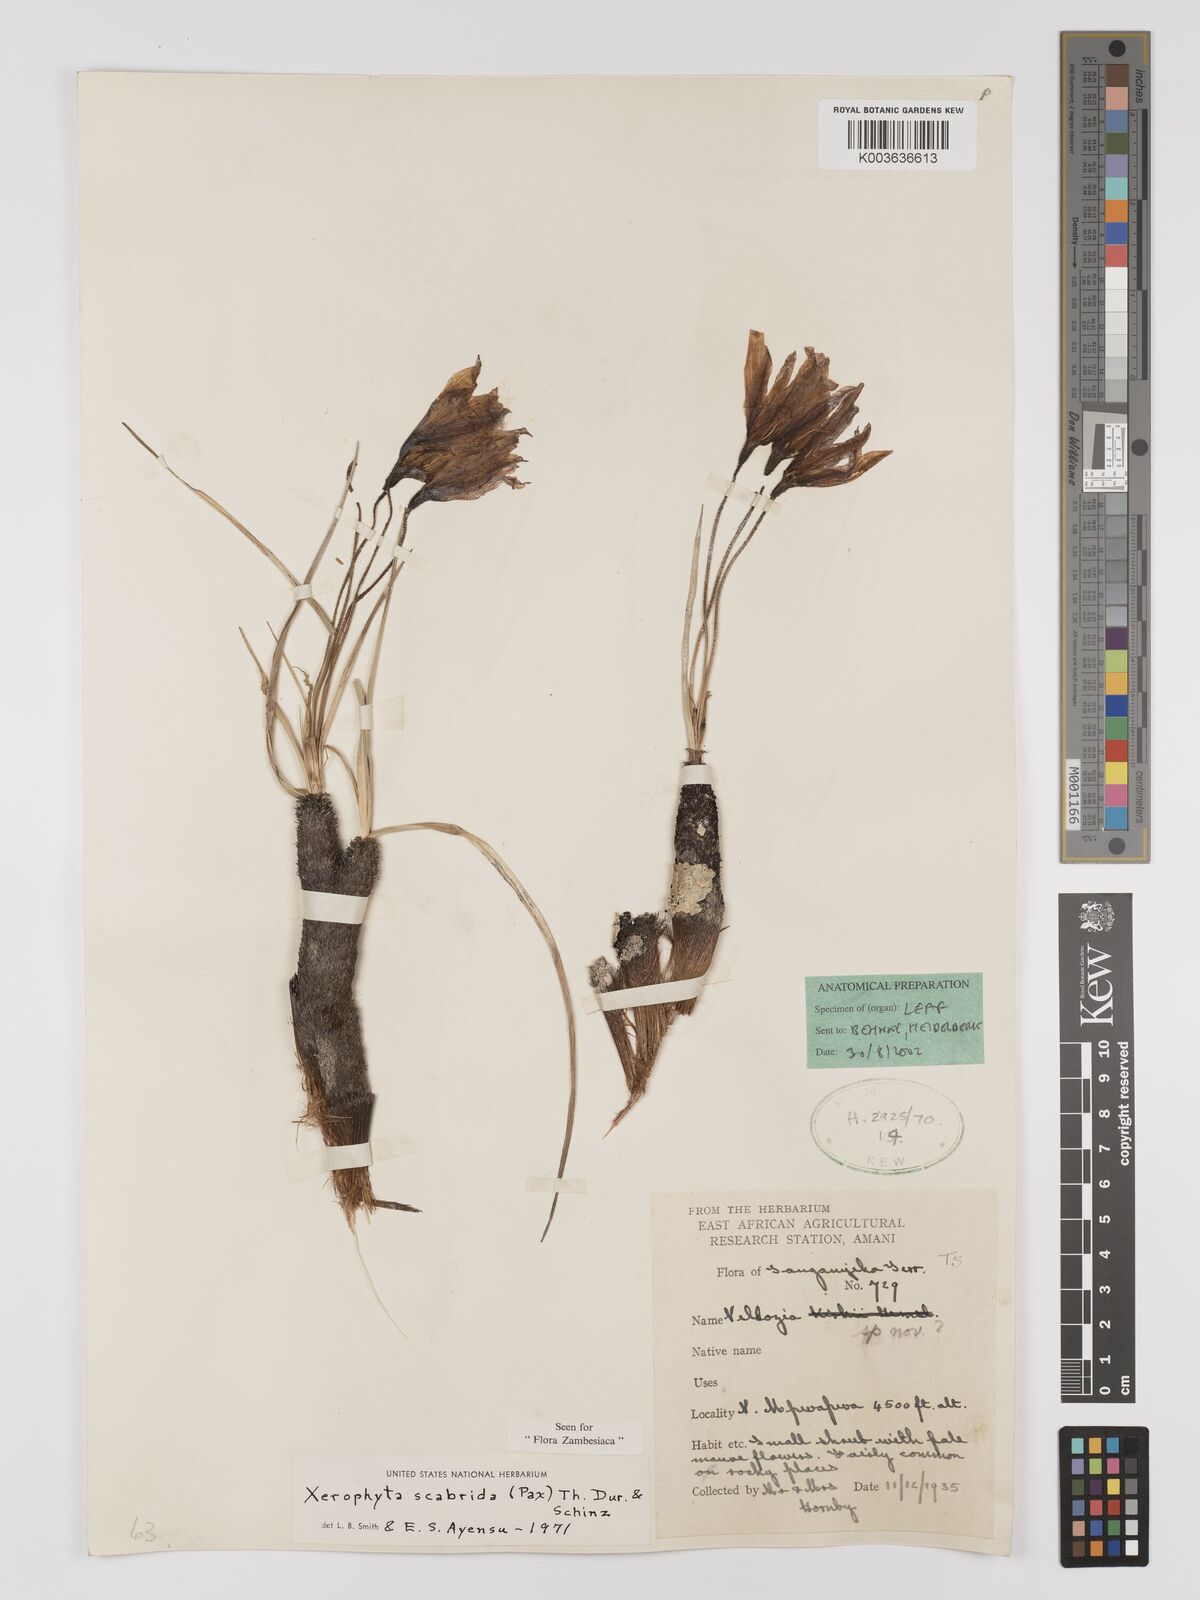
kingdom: Plantae
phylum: Tracheophyta
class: Liliopsida
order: Pandanales
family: Velloziaceae
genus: Xerophyta
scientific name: Xerophyta scabrida
